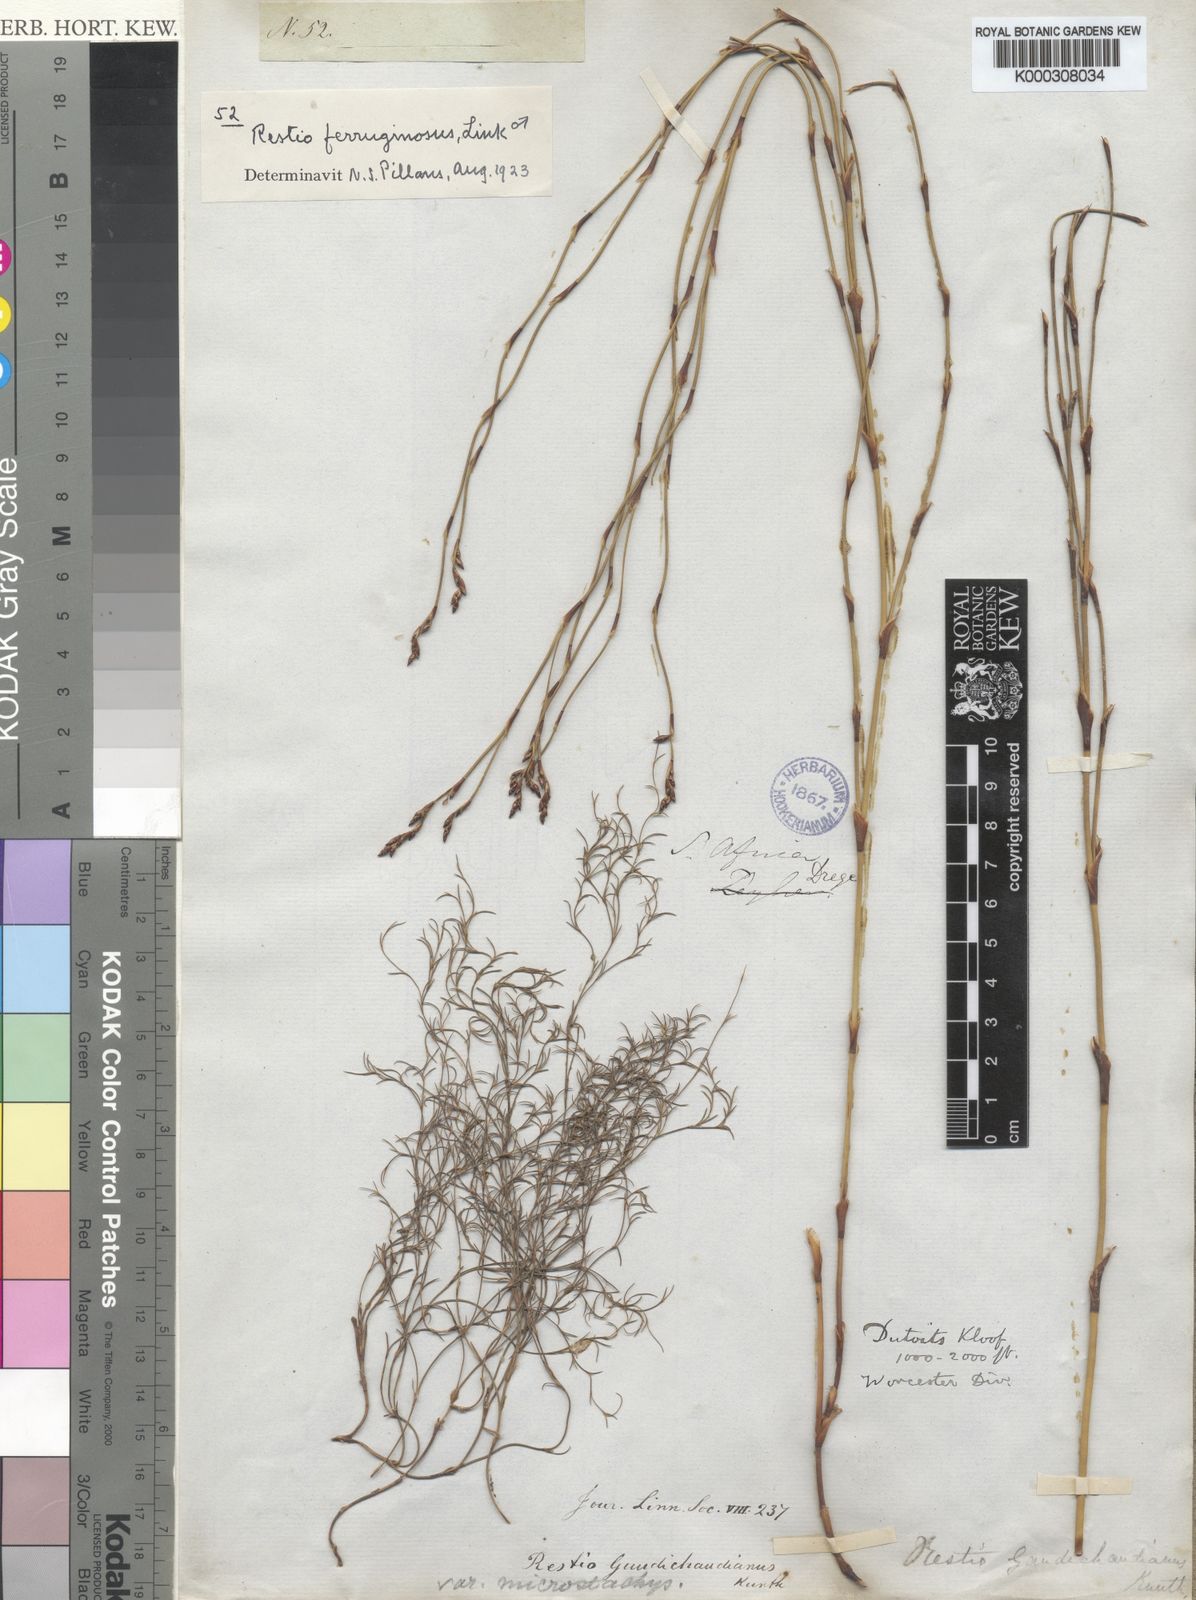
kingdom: Plantae
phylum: Tracheophyta
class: Liliopsida
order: Poales
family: Restionaceae
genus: Restio
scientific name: Restio gaudichaudianus
